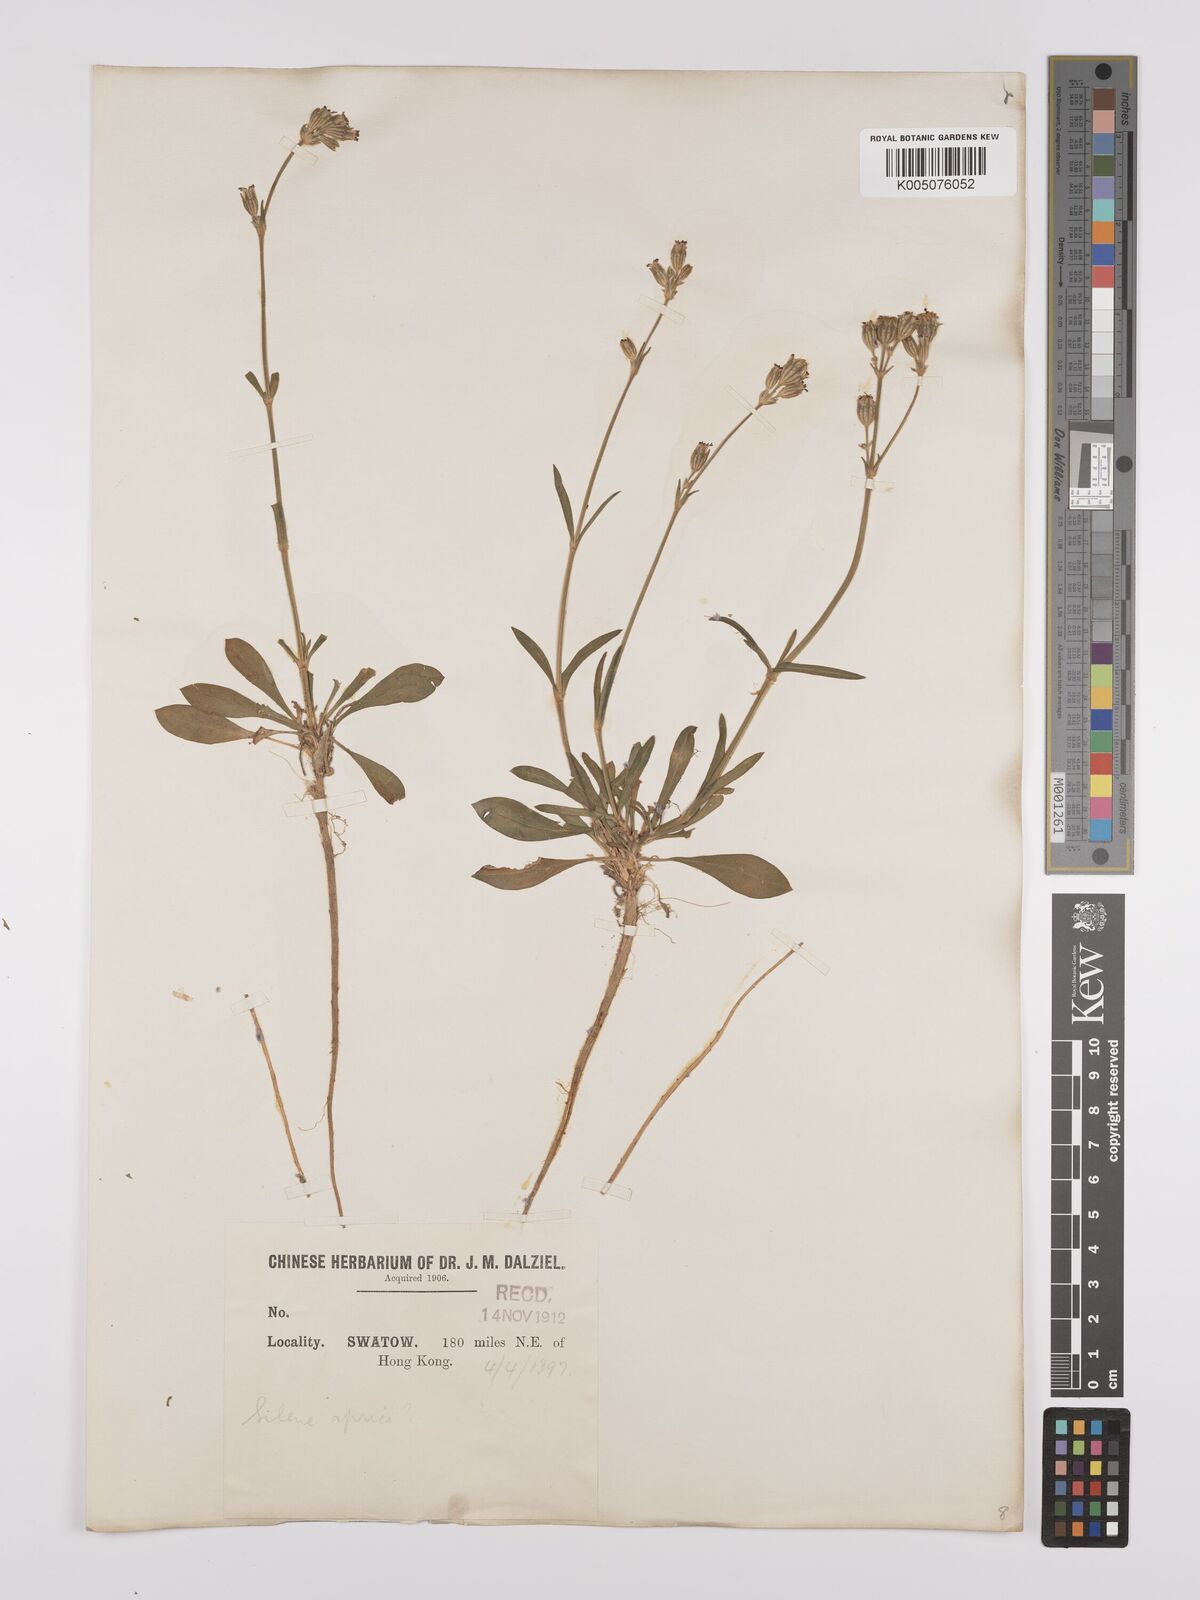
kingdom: Plantae
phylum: Tracheophyta
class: Magnoliopsida
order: Caryophyllales
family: Caryophyllaceae
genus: Silene
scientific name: Silene aprica
